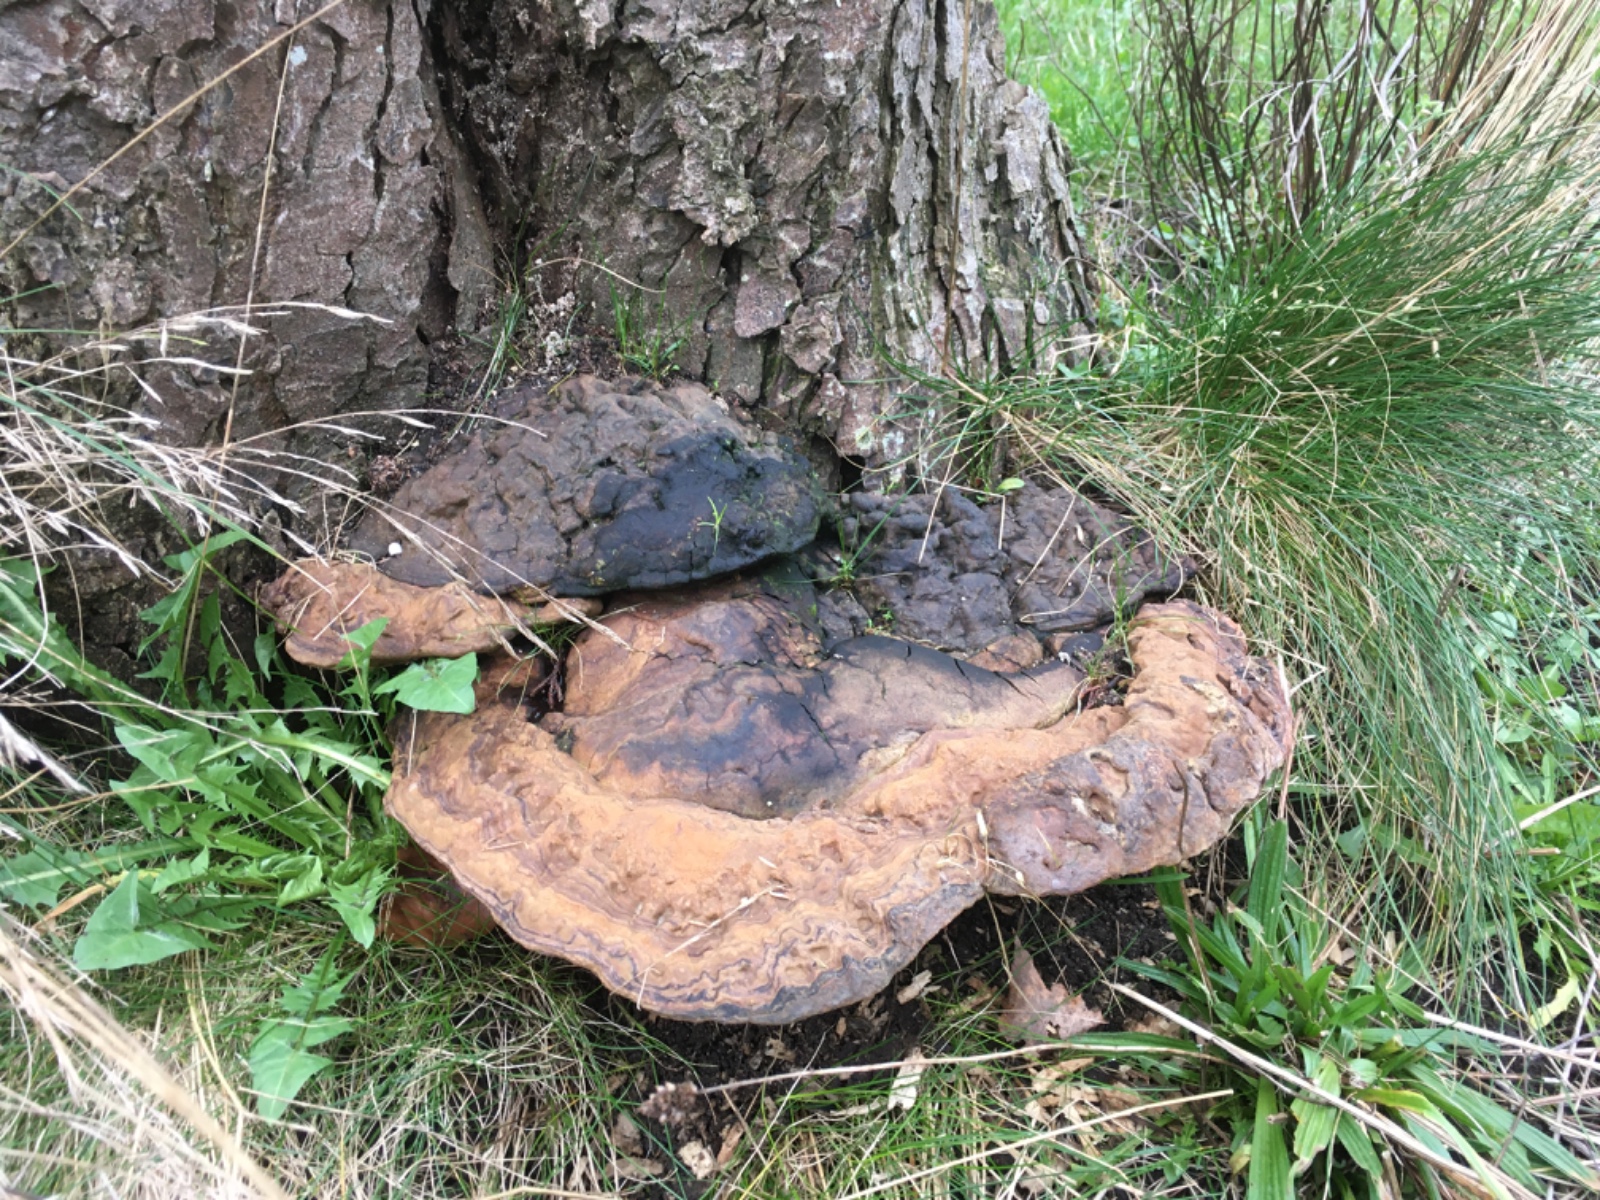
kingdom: Fungi
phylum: Basidiomycota
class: Agaricomycetes
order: Polyporales
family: Polyporaceae
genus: Ganoderma
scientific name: Ganoderma adspersum
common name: grov lakporesvamp
